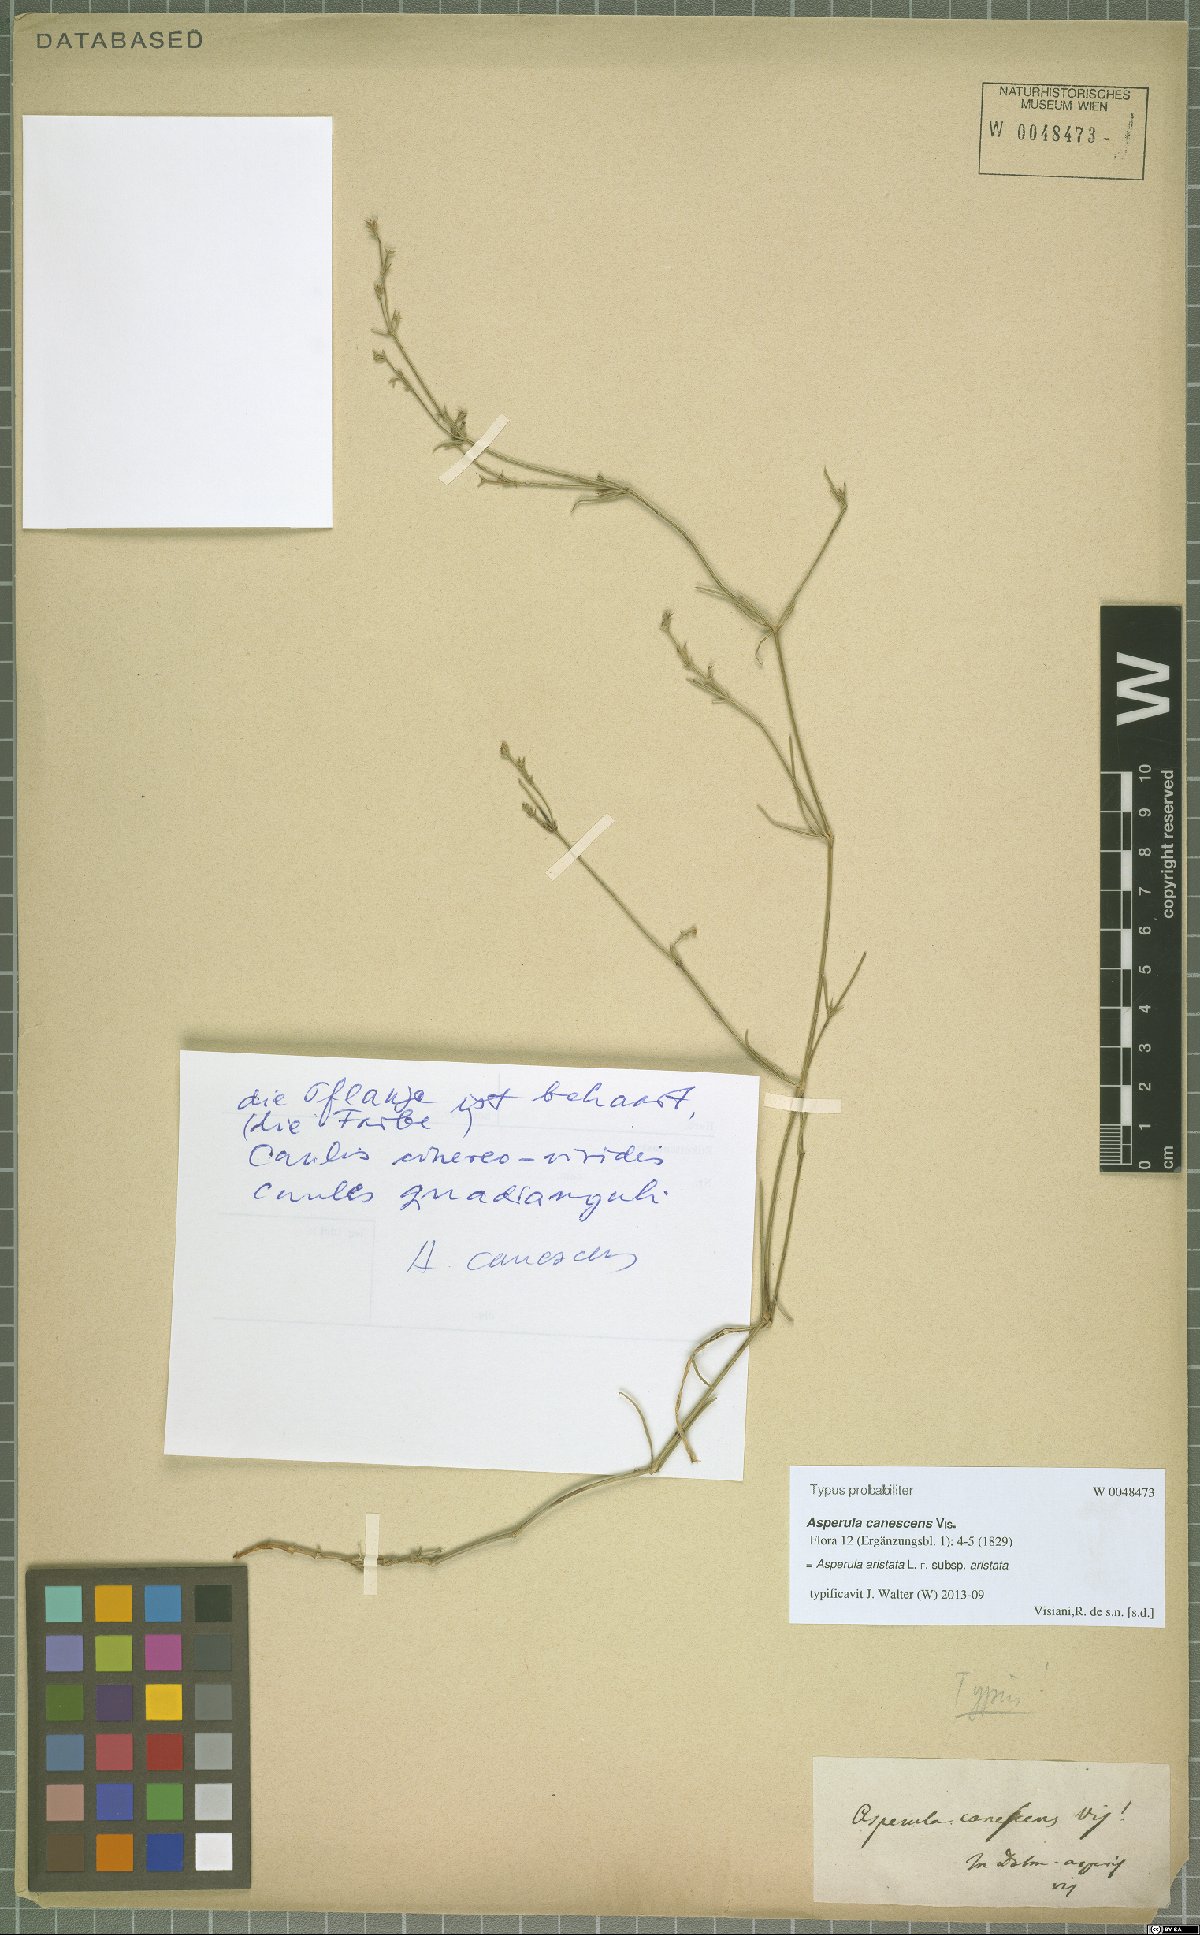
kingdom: Plantae
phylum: Tracheophyta
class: Magnoliopsida
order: Gentianales
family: Rubiaceae
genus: Cynanchica
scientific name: Cynanchica aristata
